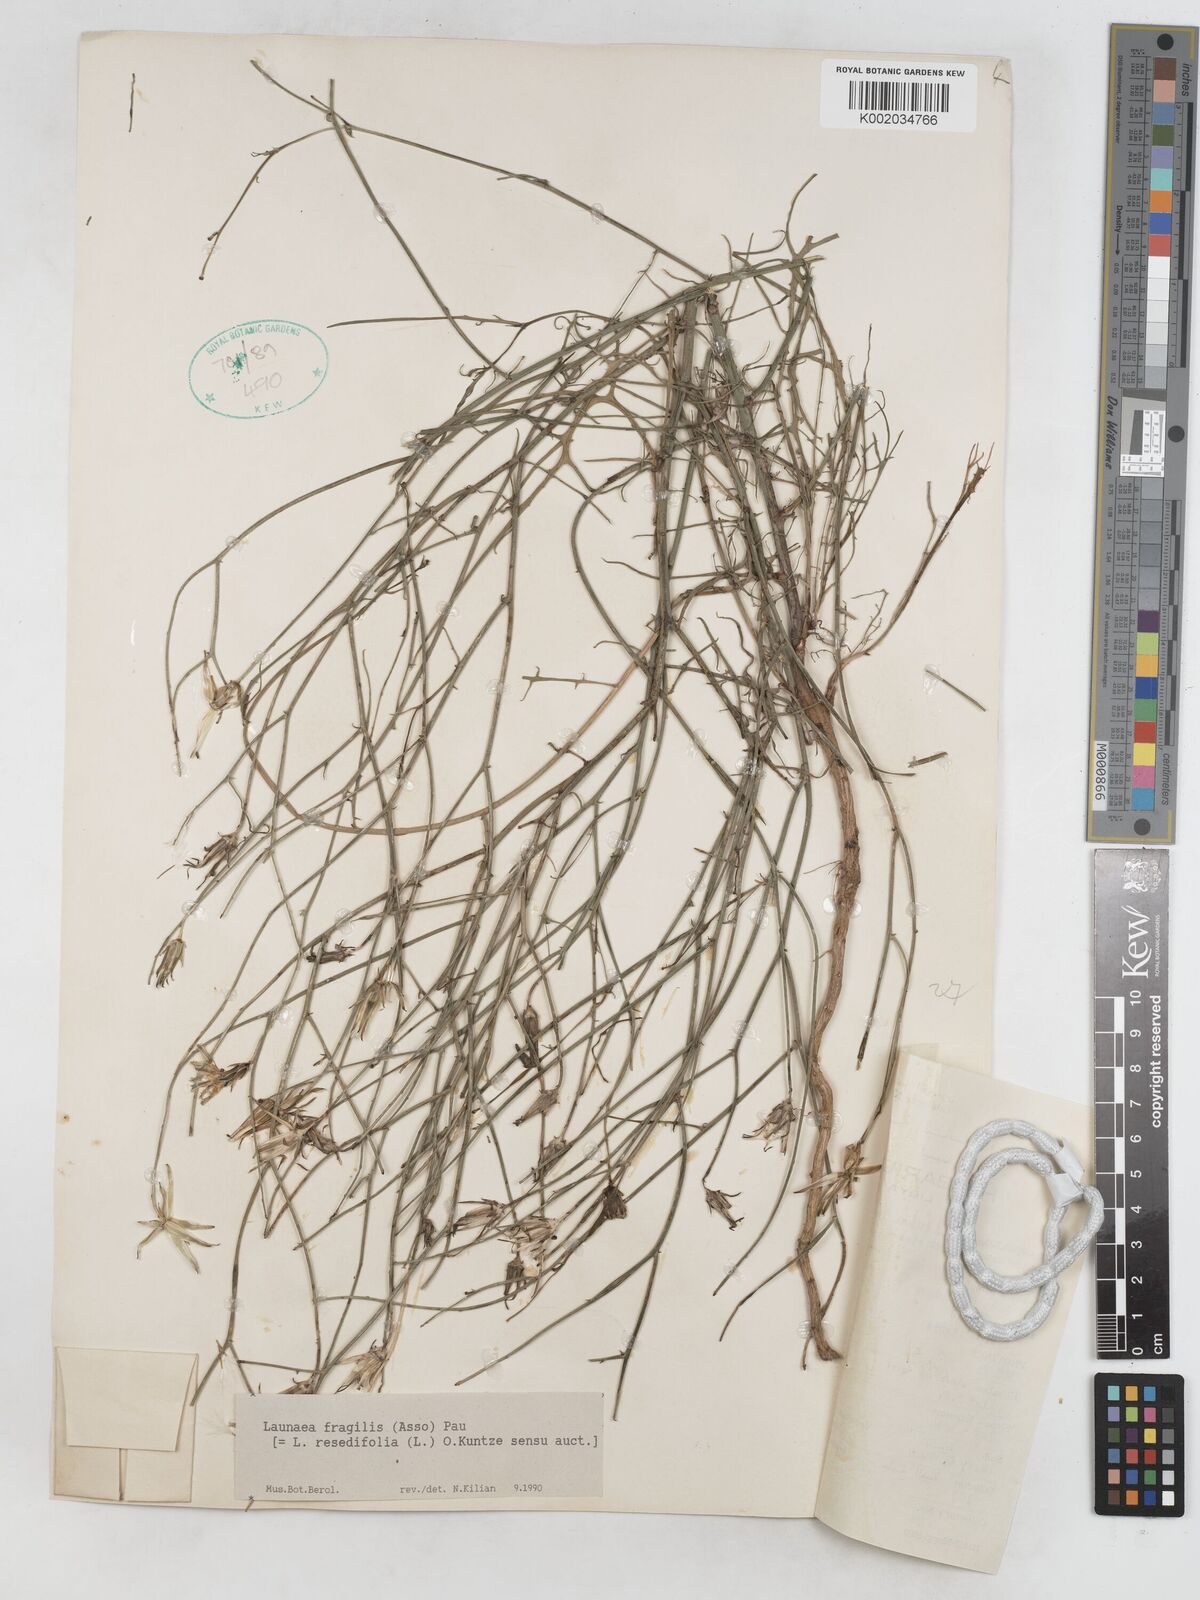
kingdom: Plantae
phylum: Tracheophyta
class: Magnoliopsida
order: Asterales
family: Asteraceae
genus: Launaea
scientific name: Launaea fragilis
